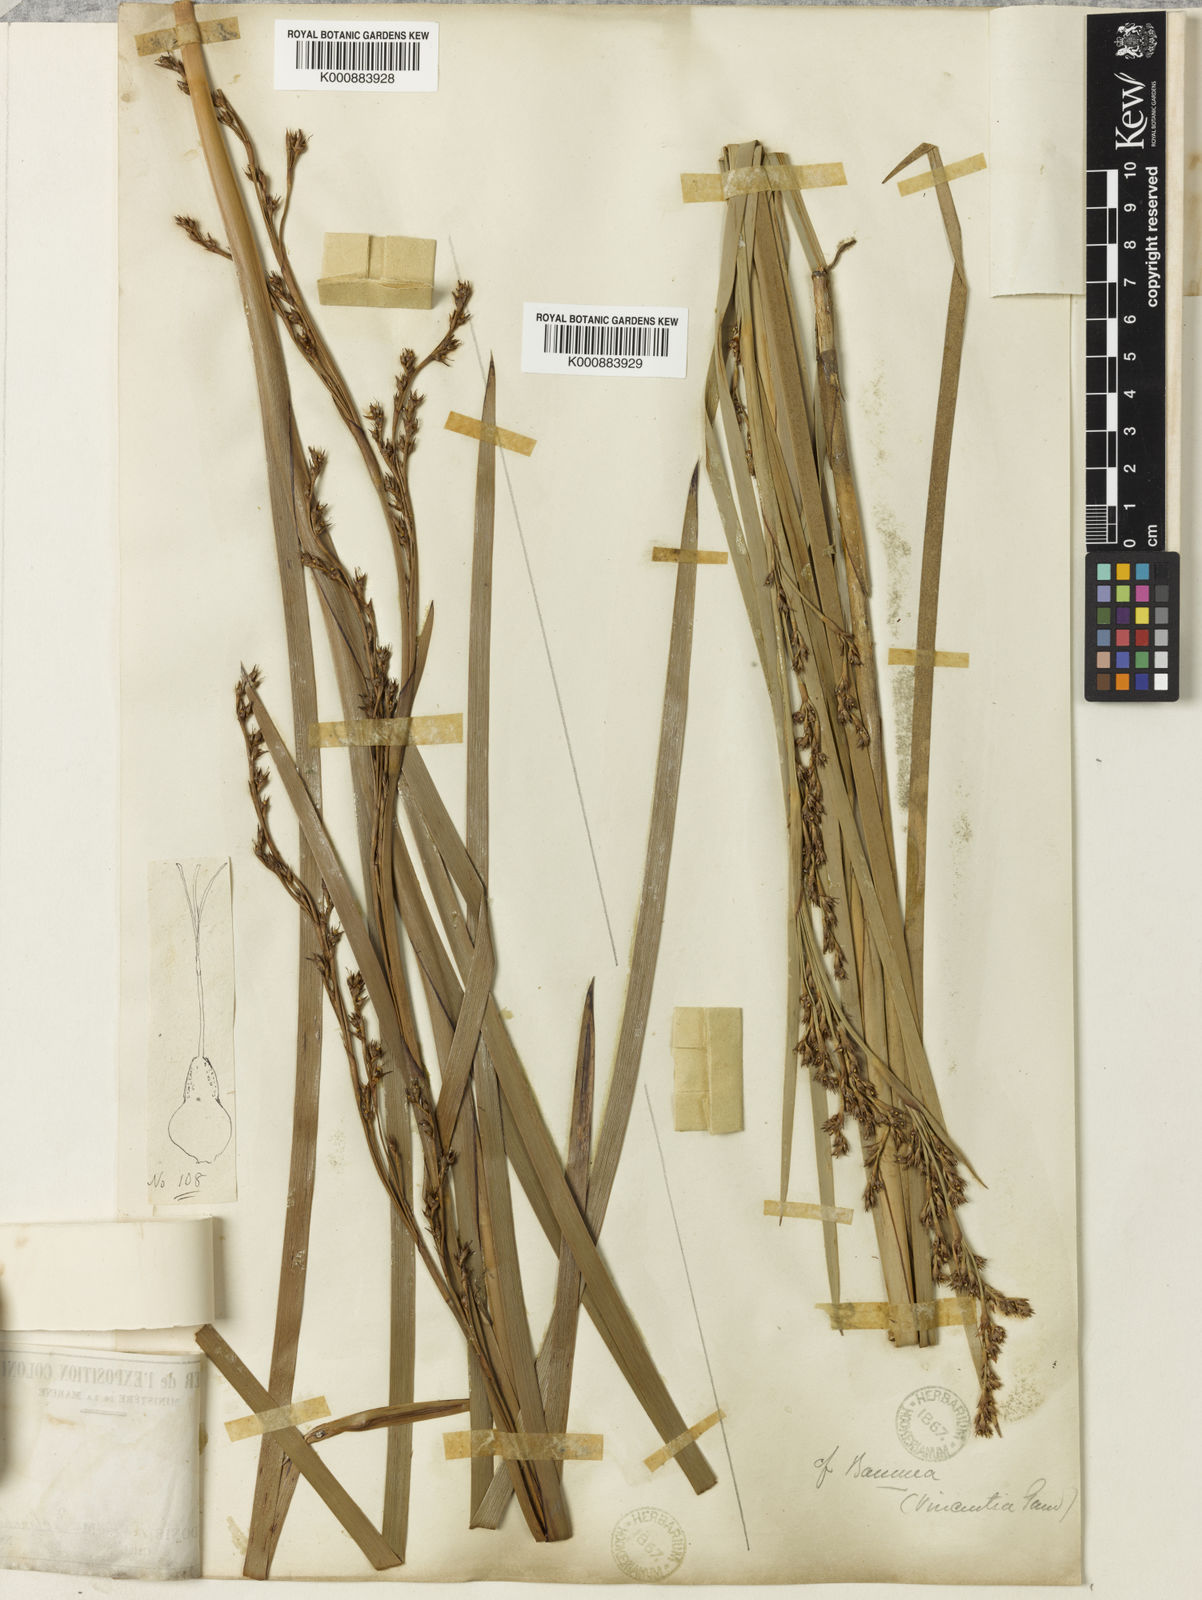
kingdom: Plantae
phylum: Tracheophyta
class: Liliopsida
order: Poales
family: Cyperaceae
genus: Machaerina
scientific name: Machaerina deplanchei
